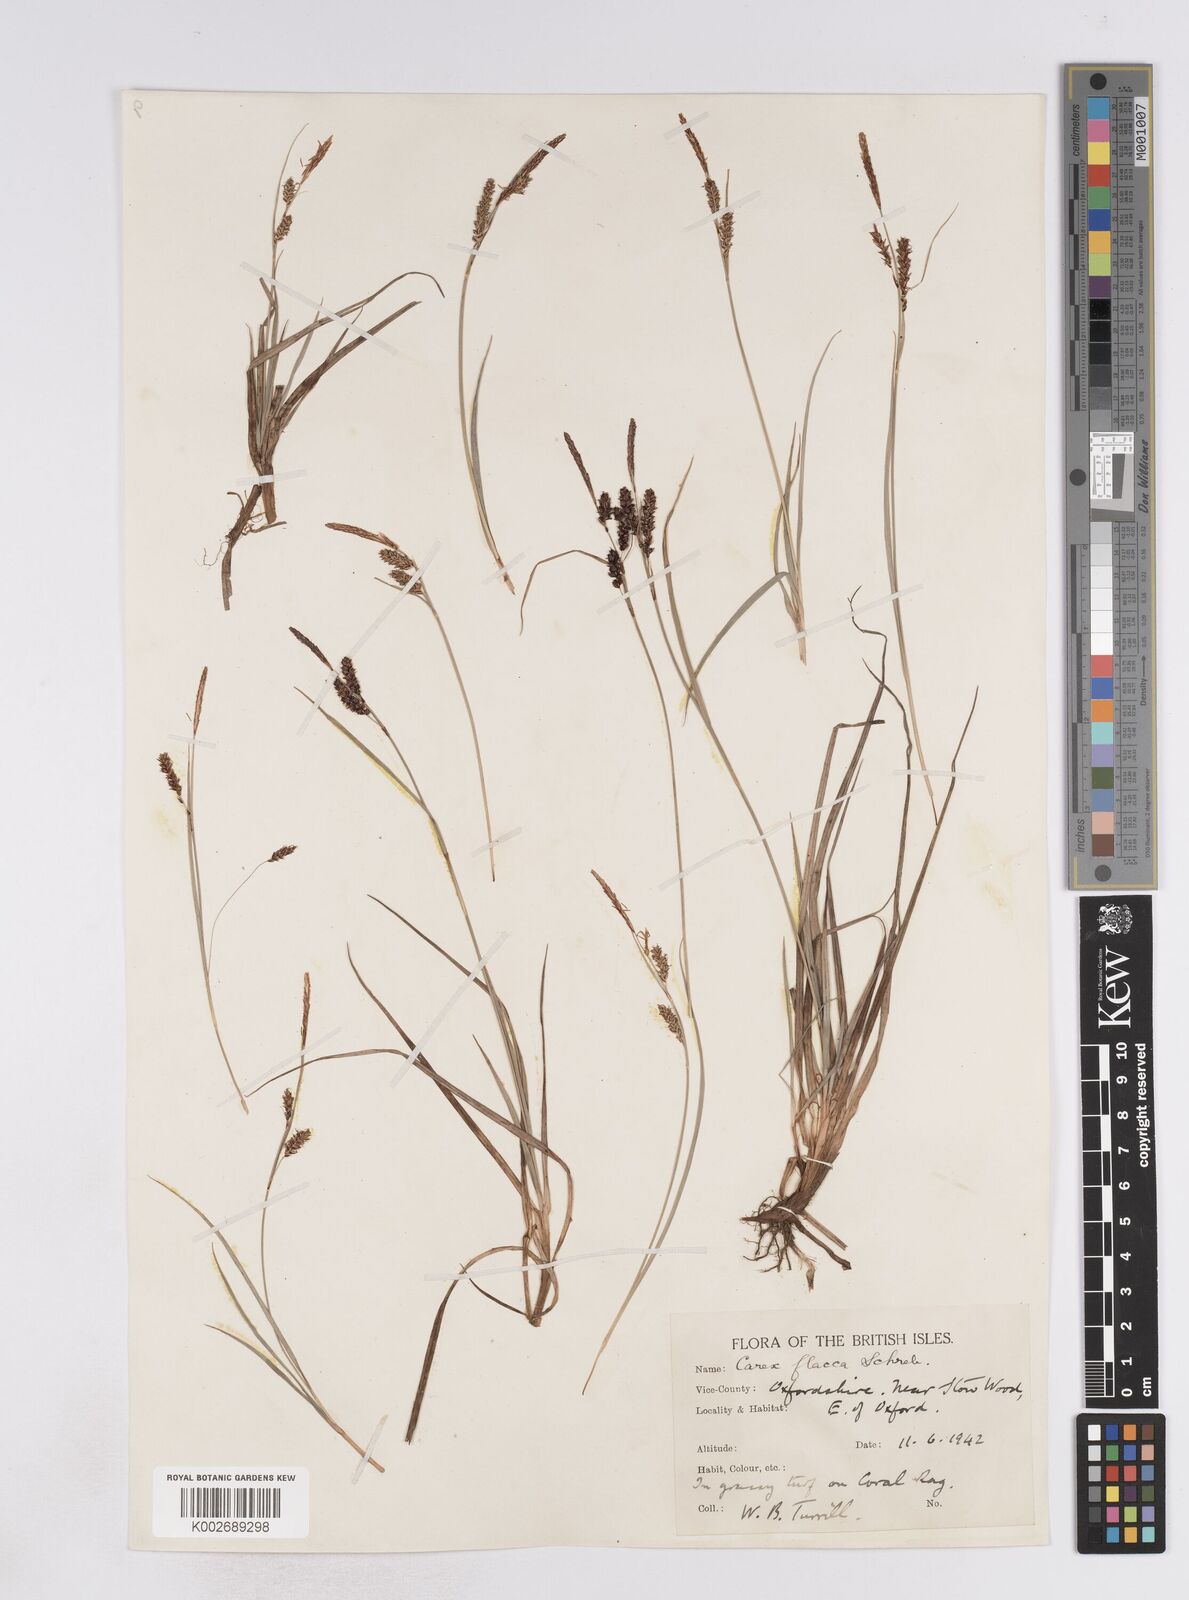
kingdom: Plantae
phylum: Tracheophyta
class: Liliopsida
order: Poales
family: Cyperaceae
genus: Carex
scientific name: Carex flacca
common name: Glaucous sedge
